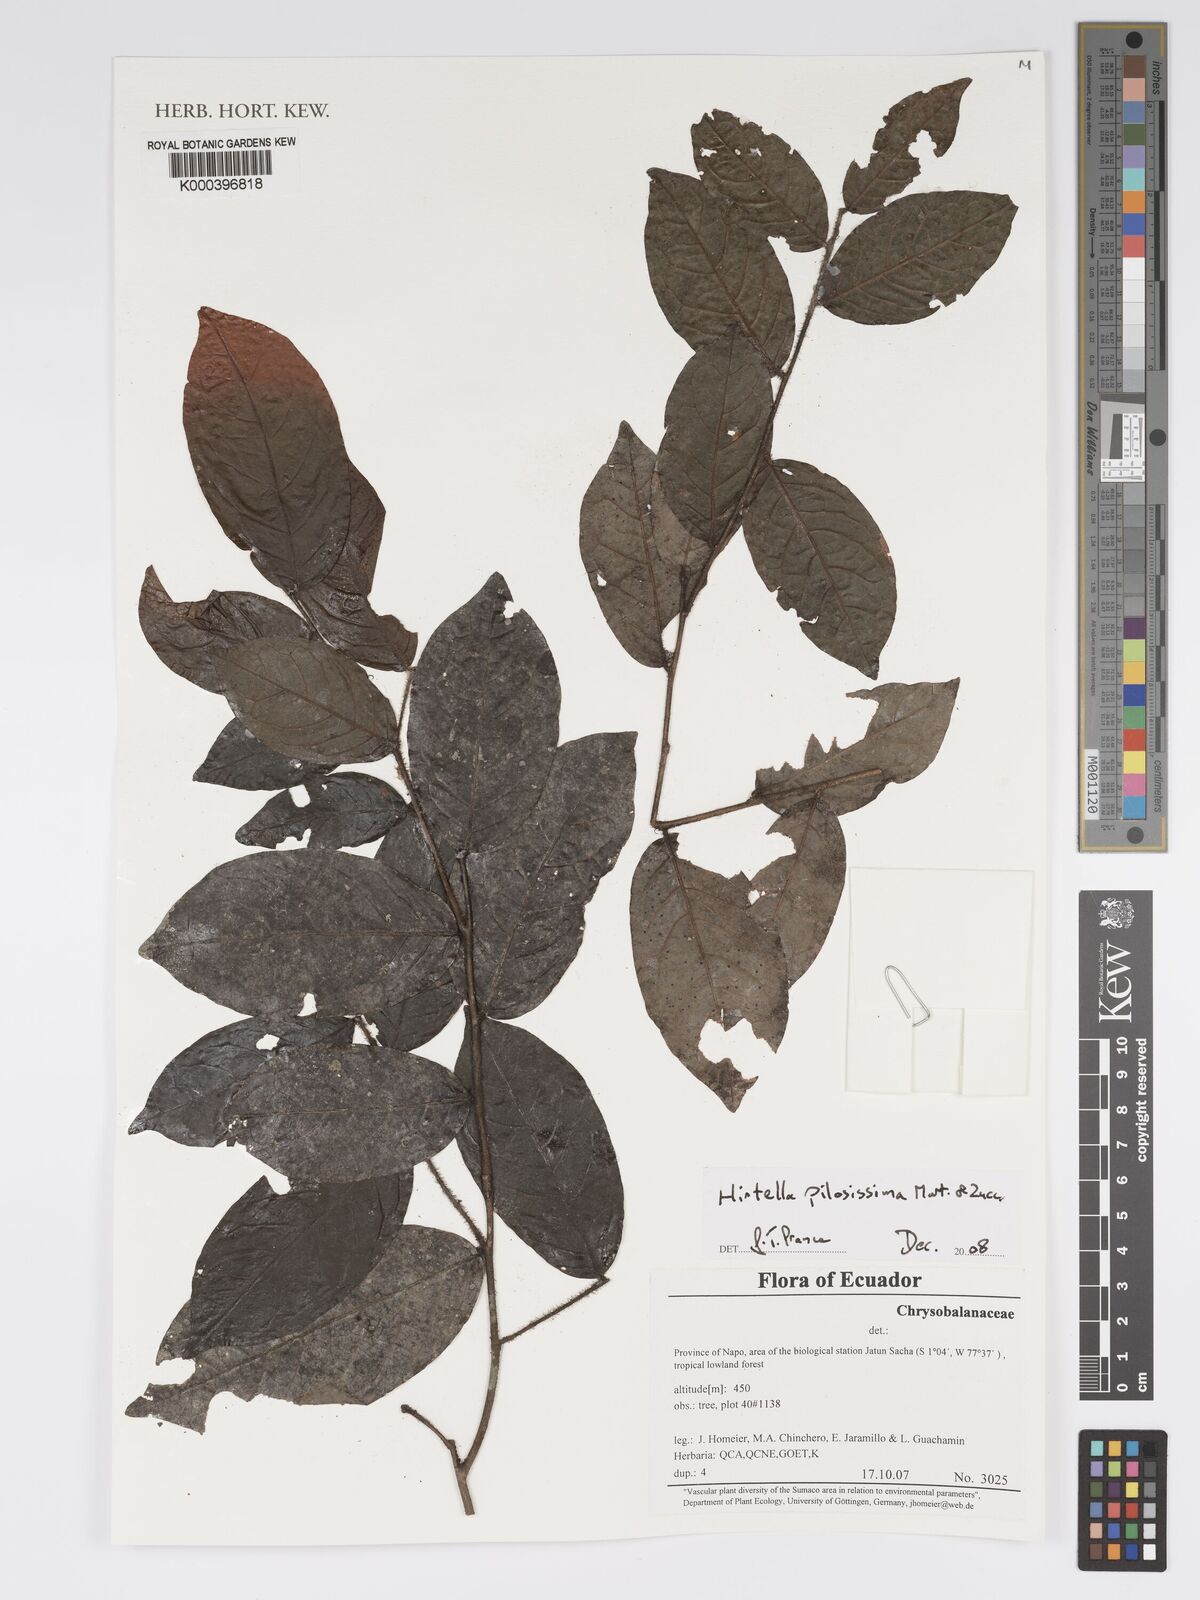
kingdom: Plantae
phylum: Tracheophyta
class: Magnoliopsida
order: Malpighiales
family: Chrysobalanaceae
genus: Hirtella
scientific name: Hirtella pilosissima
